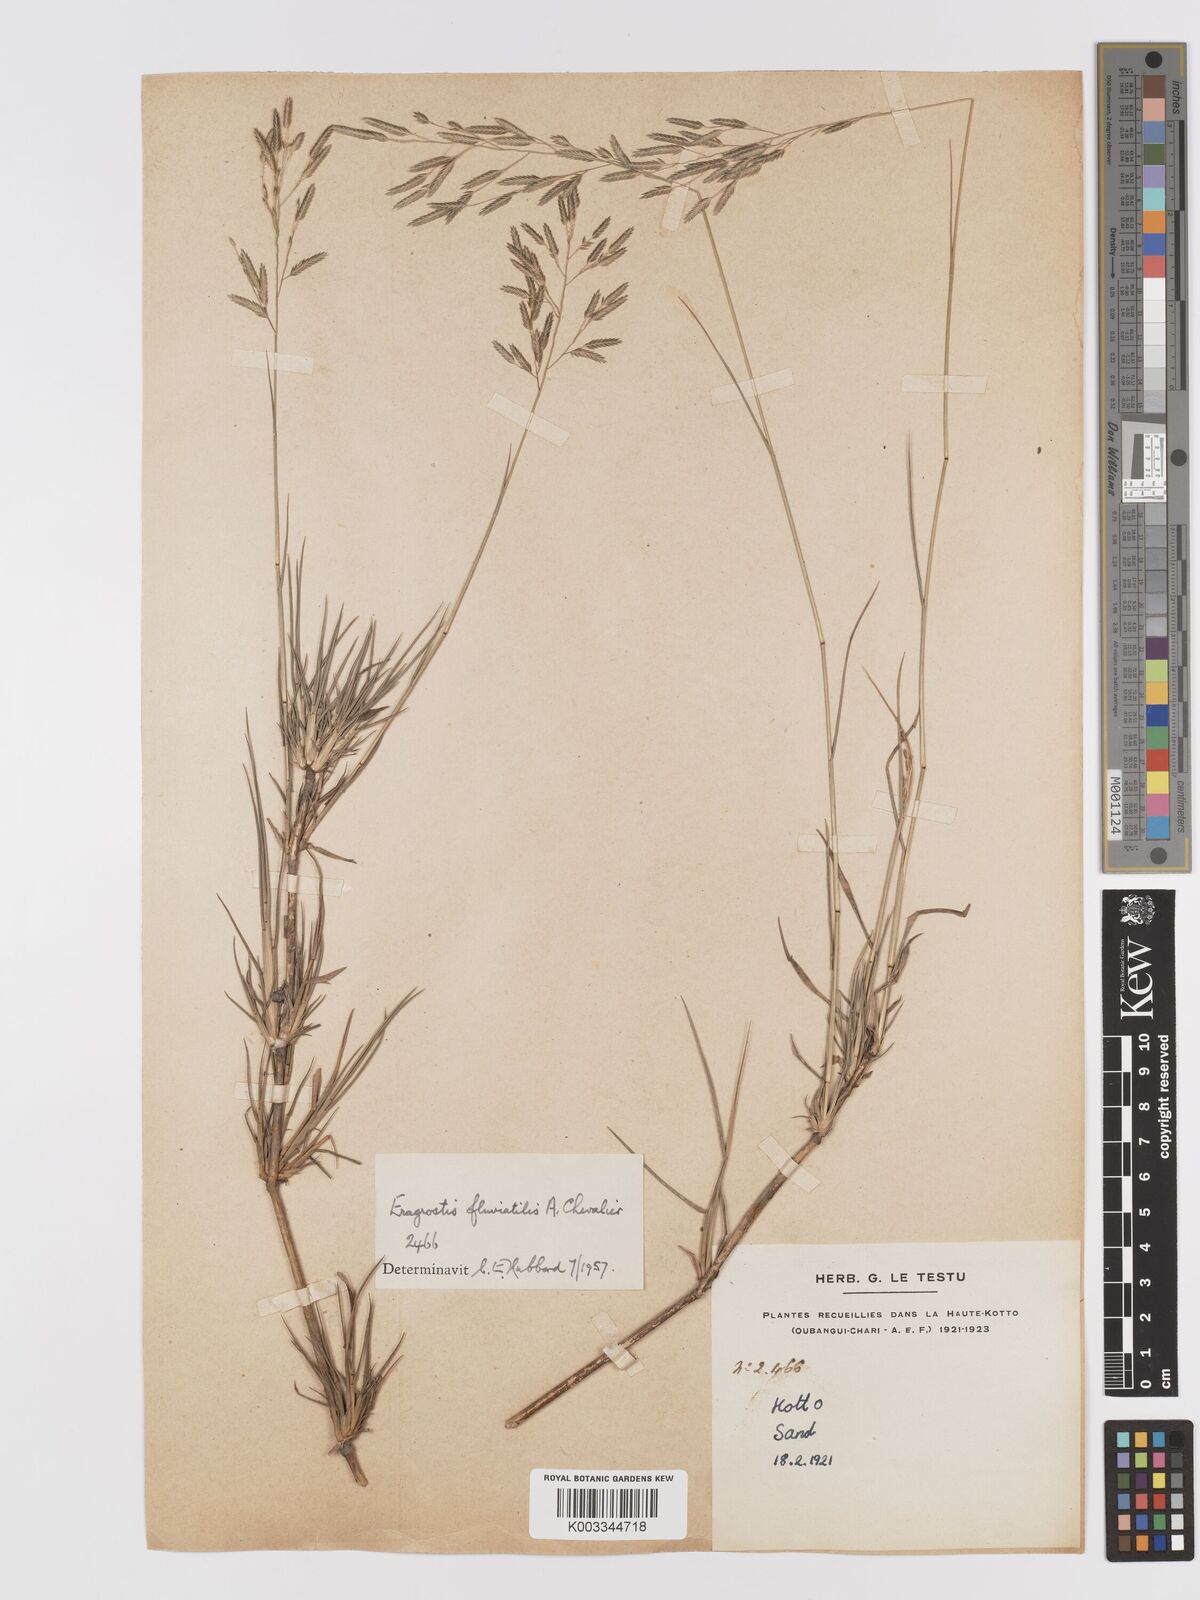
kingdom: Plantae
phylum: Tracheophyta
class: Liliopsida
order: Poales
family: Poaceae
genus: Eragrostis
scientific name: Eragrostis barteri
